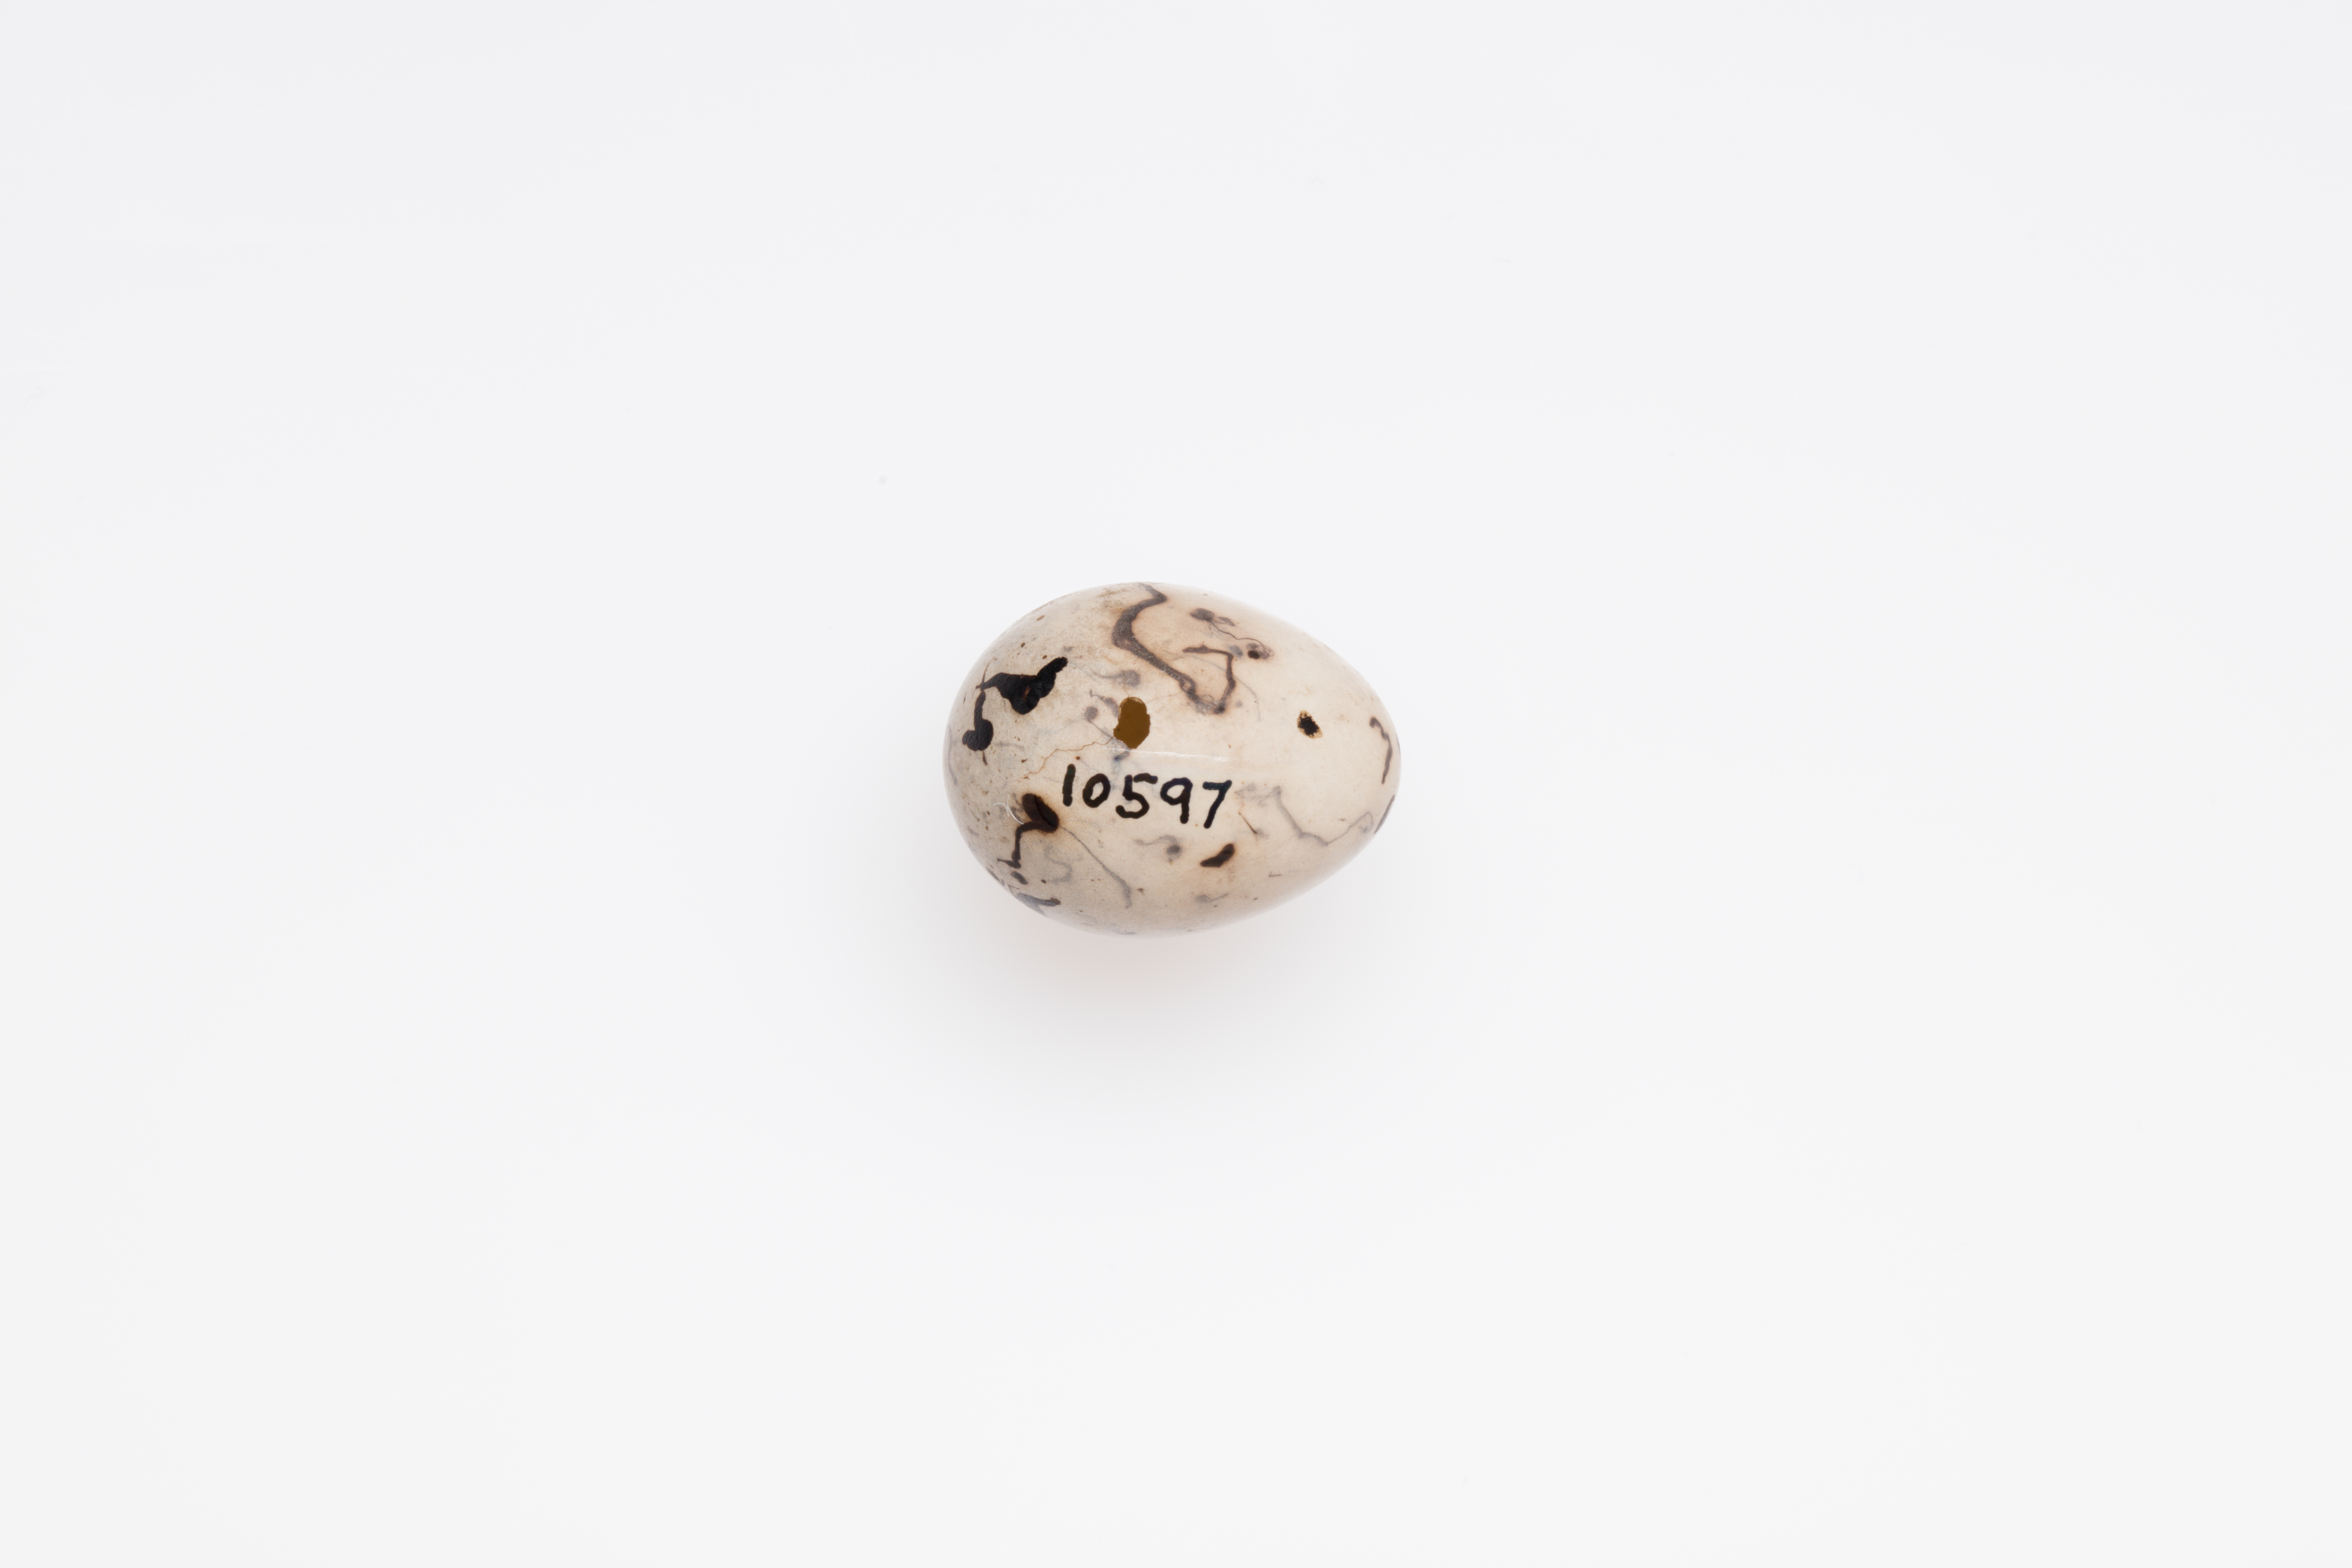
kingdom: Animalia
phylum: Chordata
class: Aves
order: Passeriformes
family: Emberizidae
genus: Emberiza
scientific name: Emberiza schoeniclus
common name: Reed bunting
